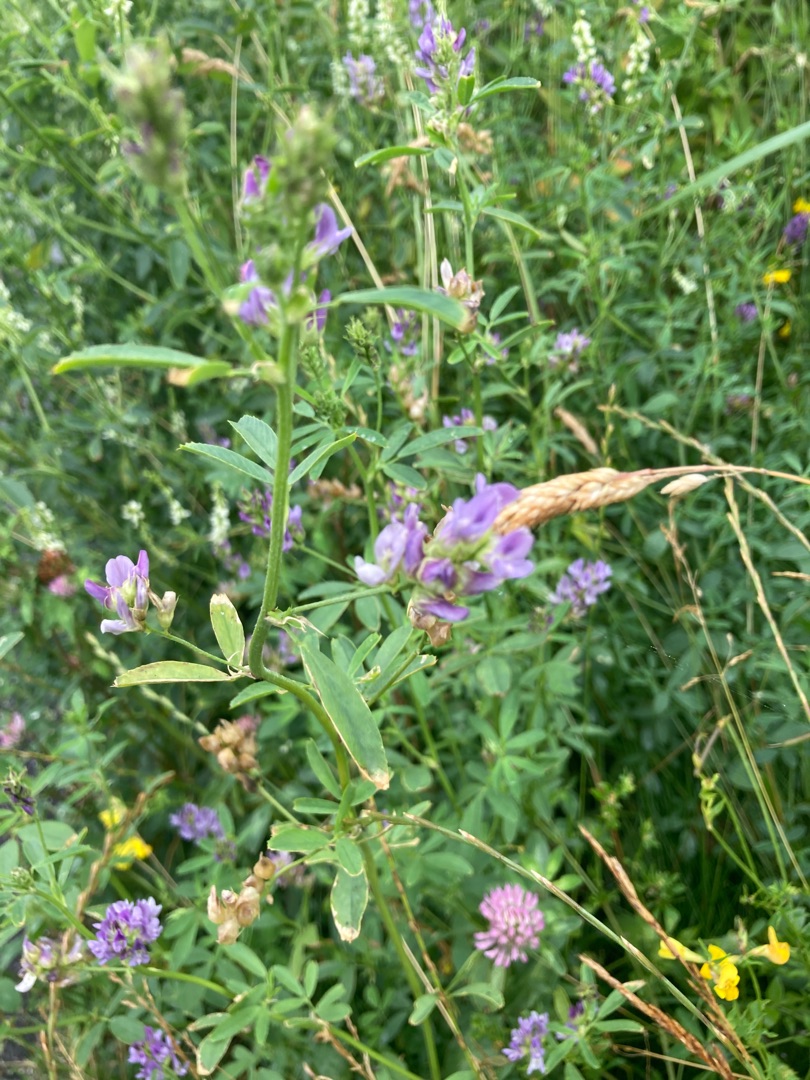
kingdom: Plantae
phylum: Tracheophyta
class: Magnoliopsida
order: Fabales
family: Fabaceae
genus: Medicago
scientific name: Medicago sativa
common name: Lucerne
